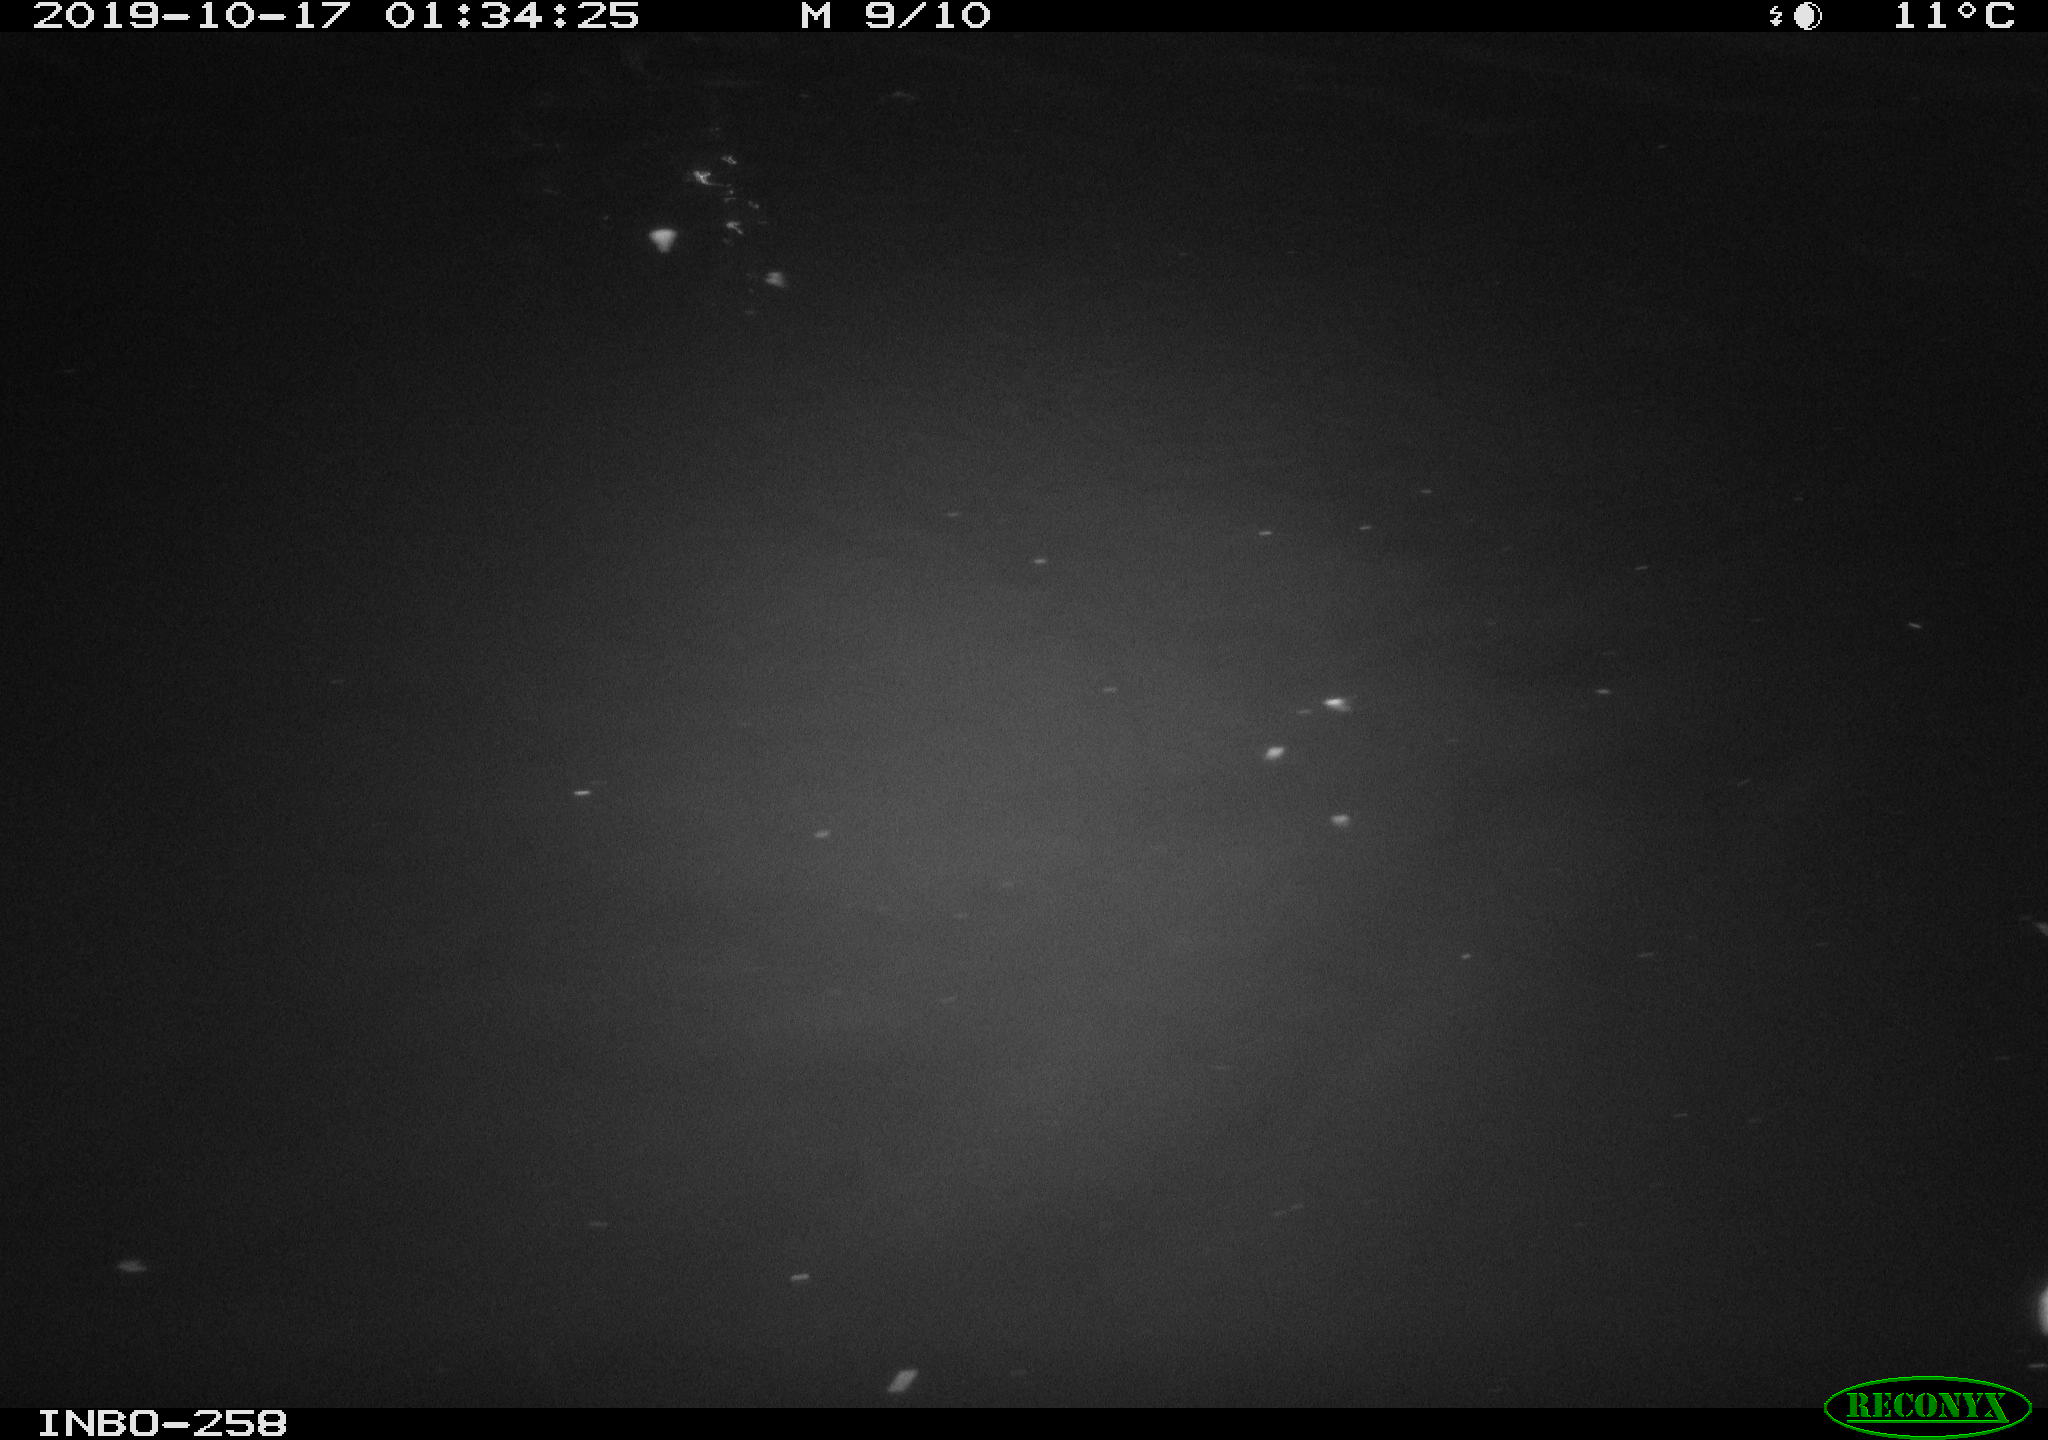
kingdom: Animalia
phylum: Chordata
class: Aves
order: Anseriformes
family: Anatidae
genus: Anas
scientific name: Anas platyrhynchos
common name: Mallard
